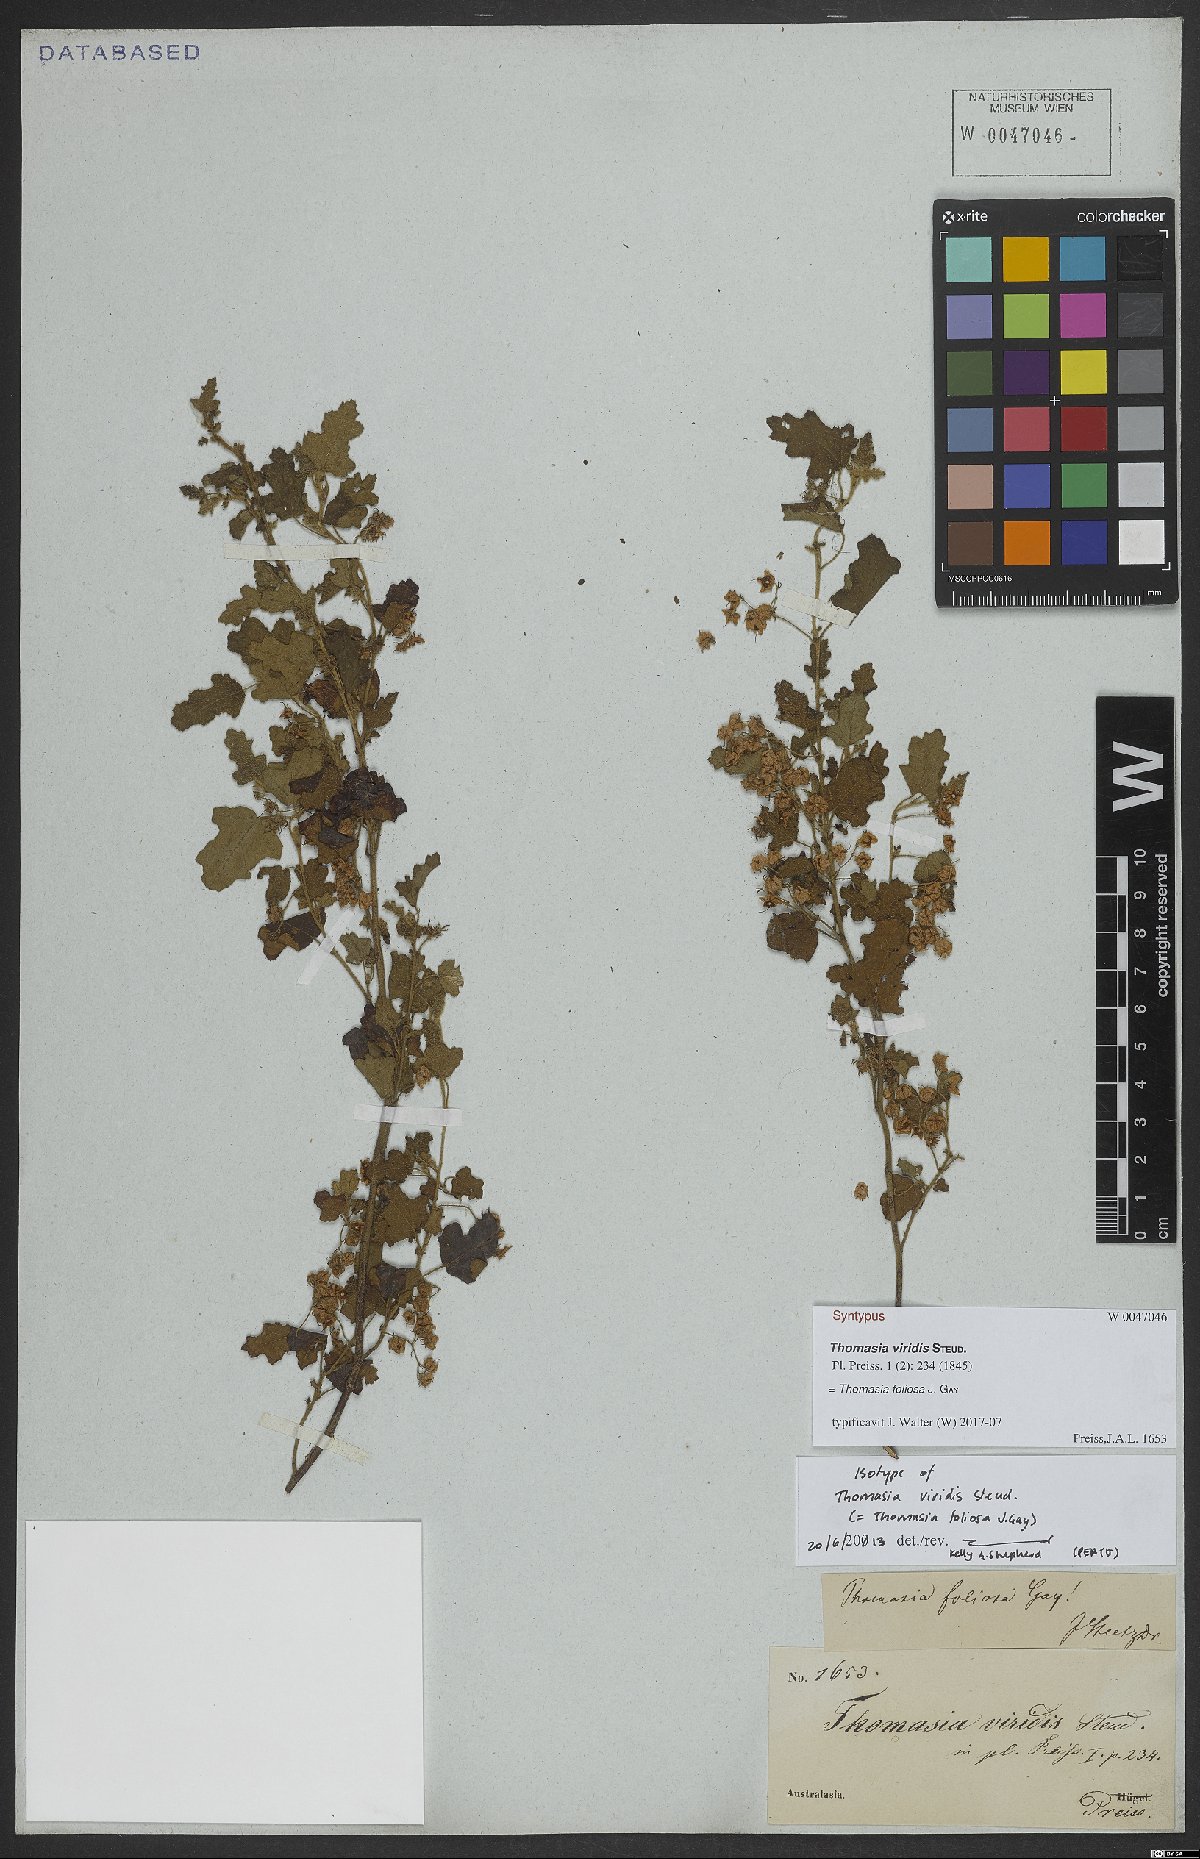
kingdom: Plantae
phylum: Tracheophyta
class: Magnoliopsida
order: Malvales
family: Malvaceae
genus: Thomasia
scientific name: Thomasia foliosa
